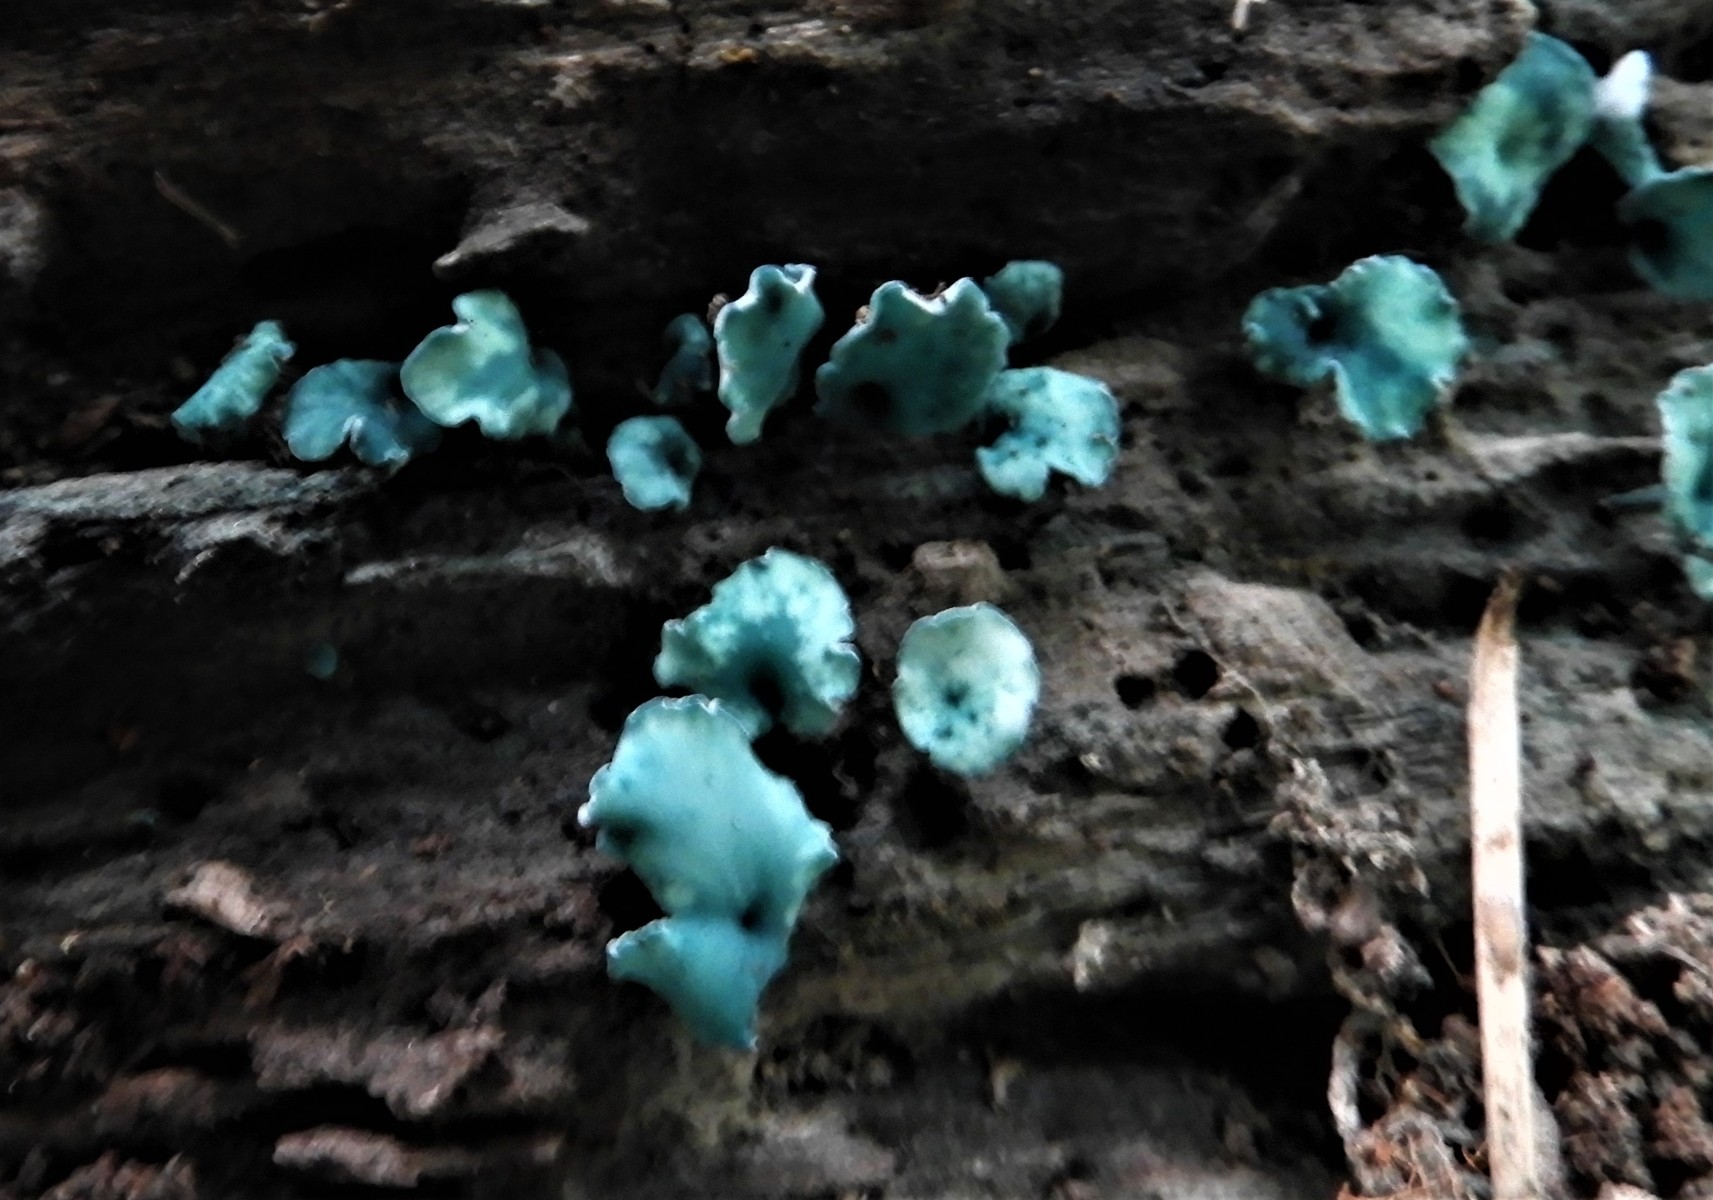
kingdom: Fungi
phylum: Ascomycota
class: Leotiomycetes
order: Helotiales
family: Chlorociboriaceae
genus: Chlorociboria
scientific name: Chlorociboria aeruginascens
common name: almindelig grønskive
